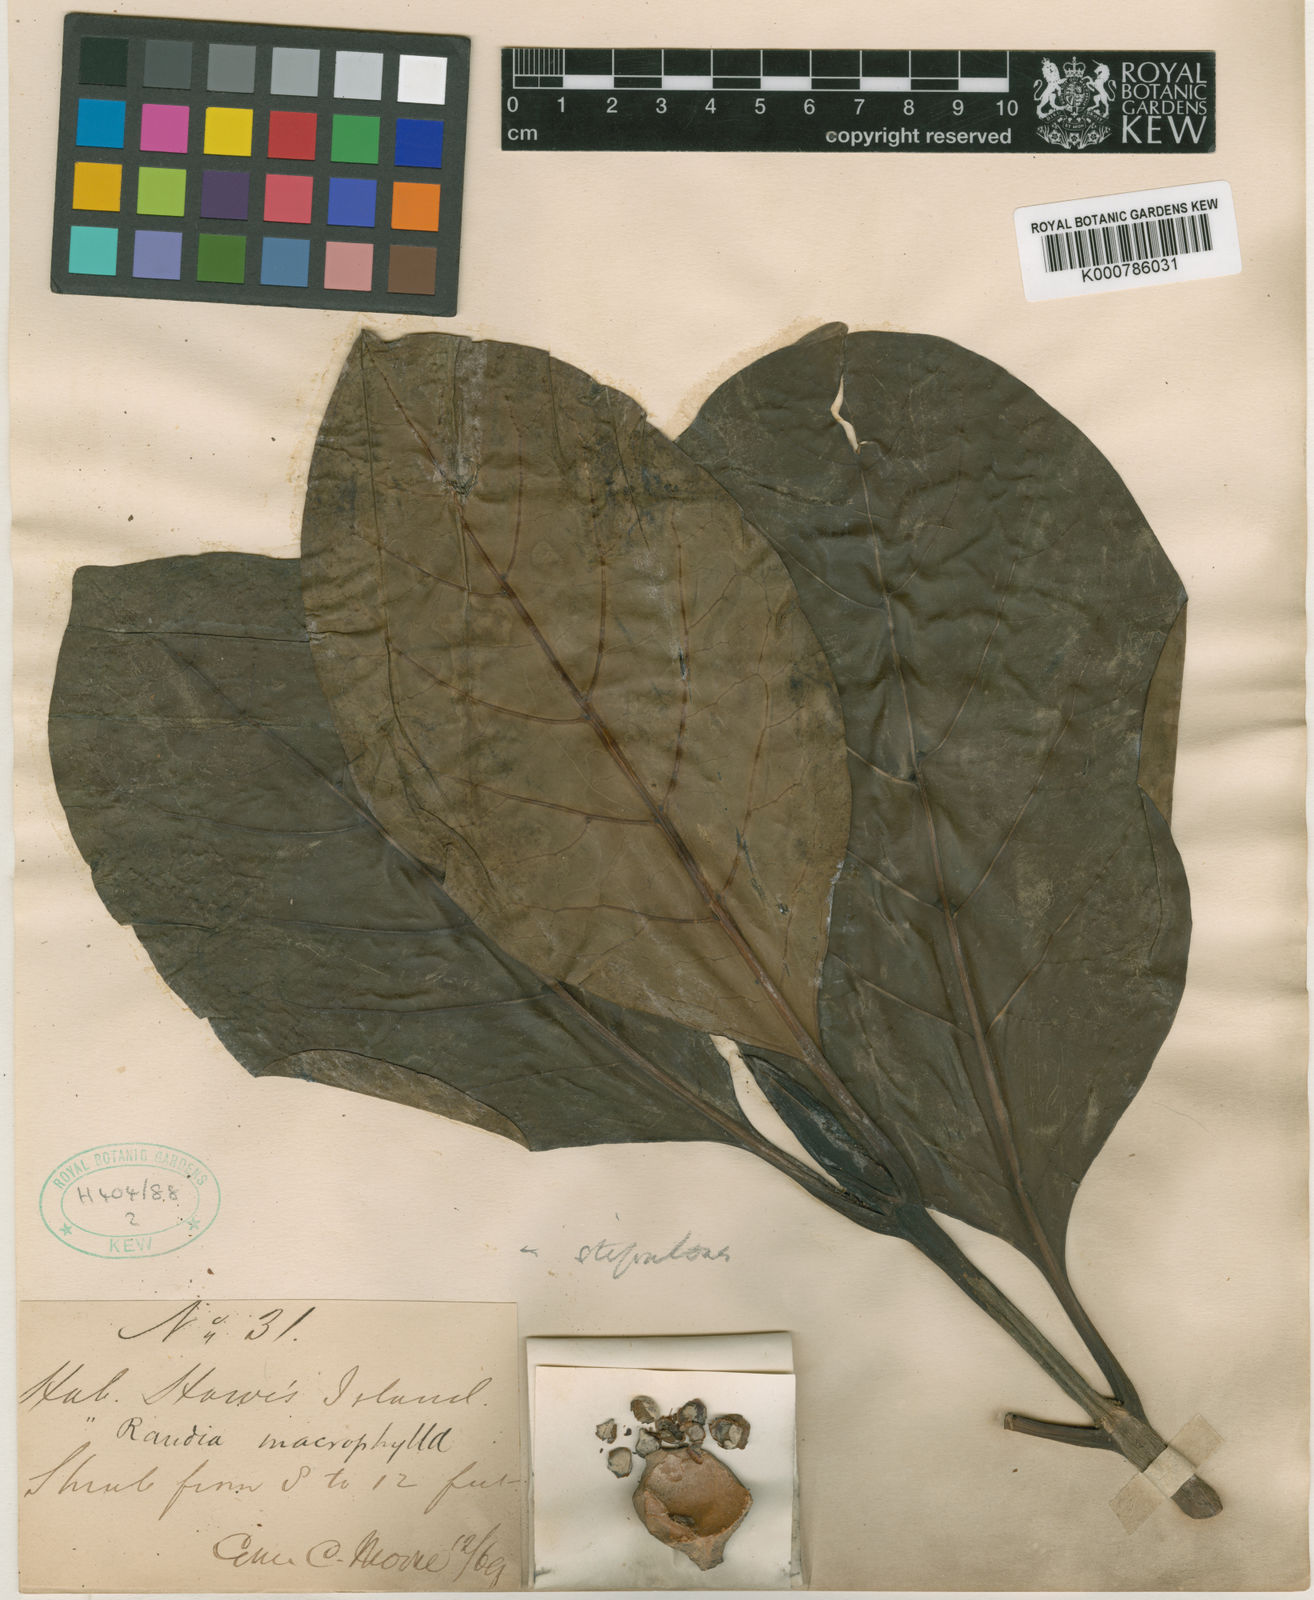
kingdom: Plantae
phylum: Tracheophyta
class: Magnoliopsida
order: Gentianales
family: Rubiaceae
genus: Atractocarpus
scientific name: Atractocarpus
